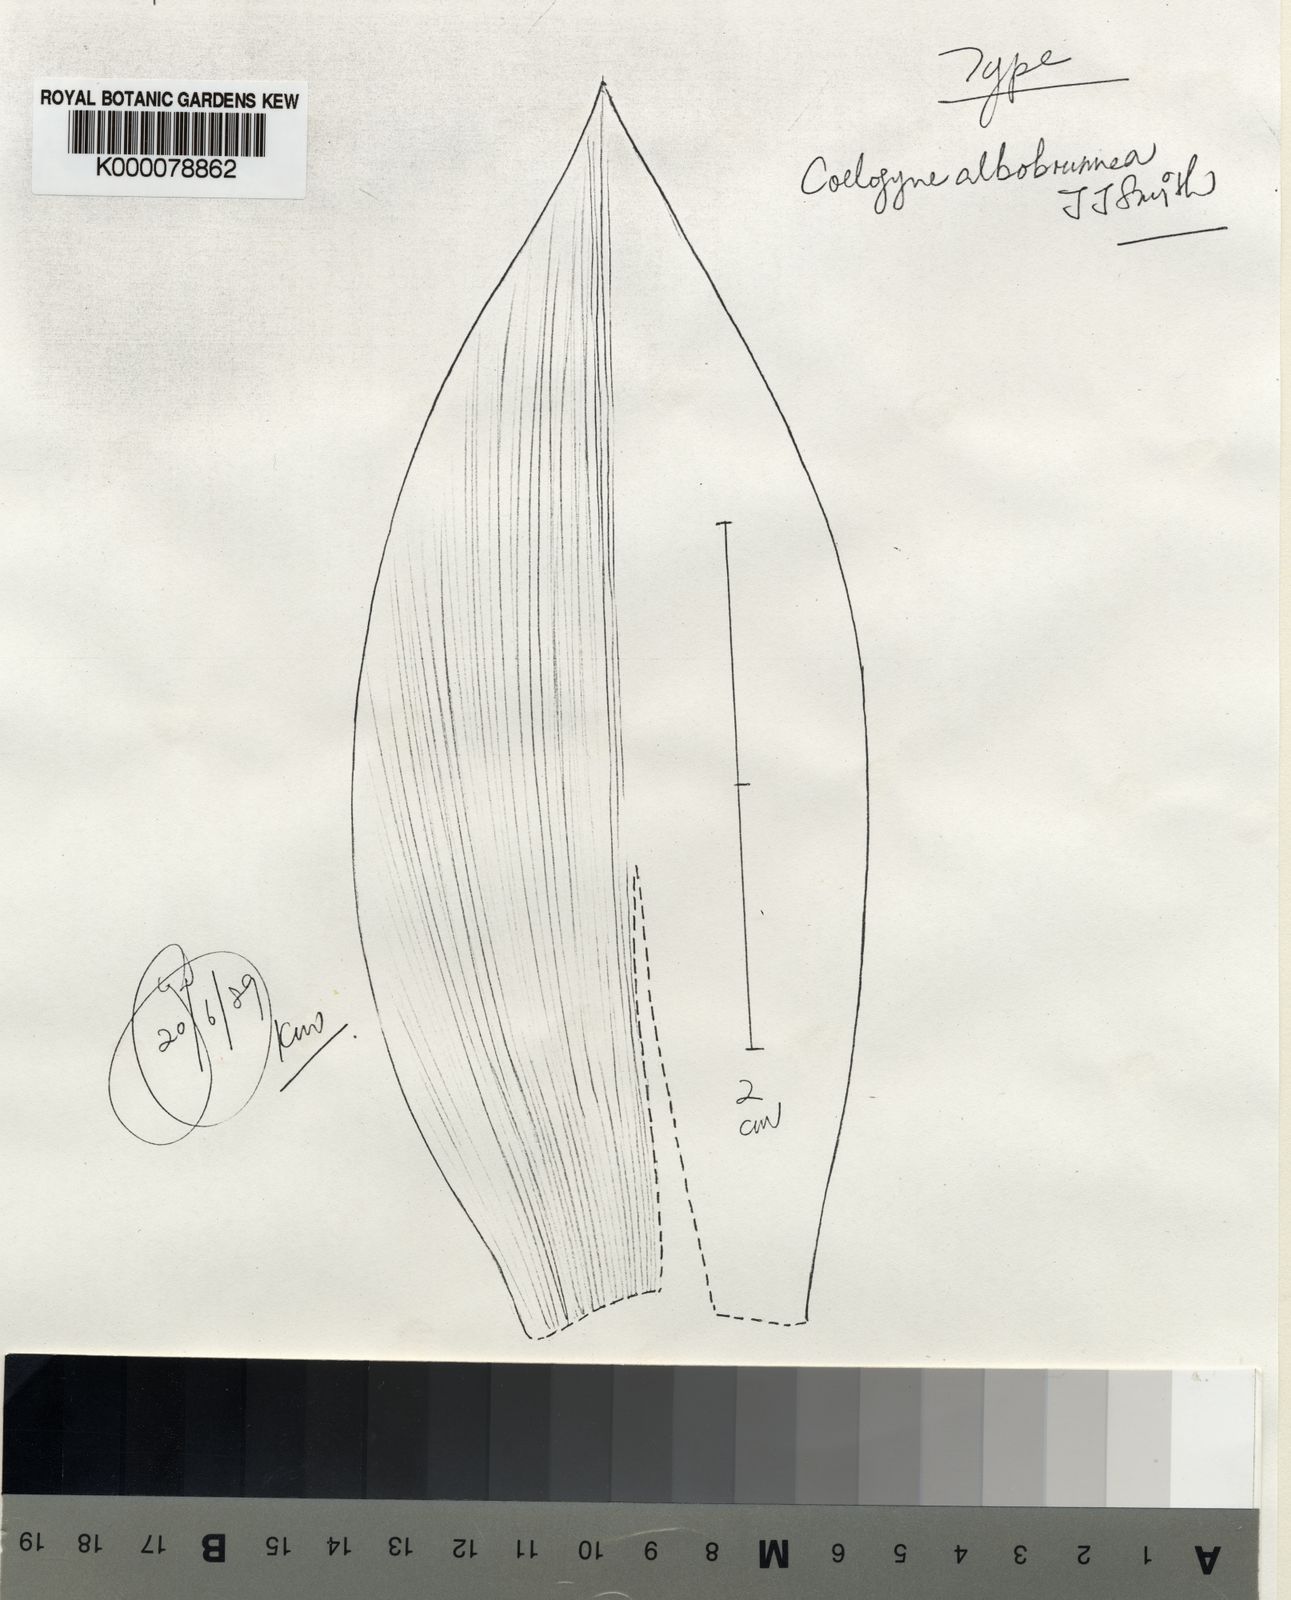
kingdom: Plantae
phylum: Tracheophyta
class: Liliopsida
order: Asparagales
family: Orchidaceae
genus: Coelogyne
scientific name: Coelogyne albobrunnea
